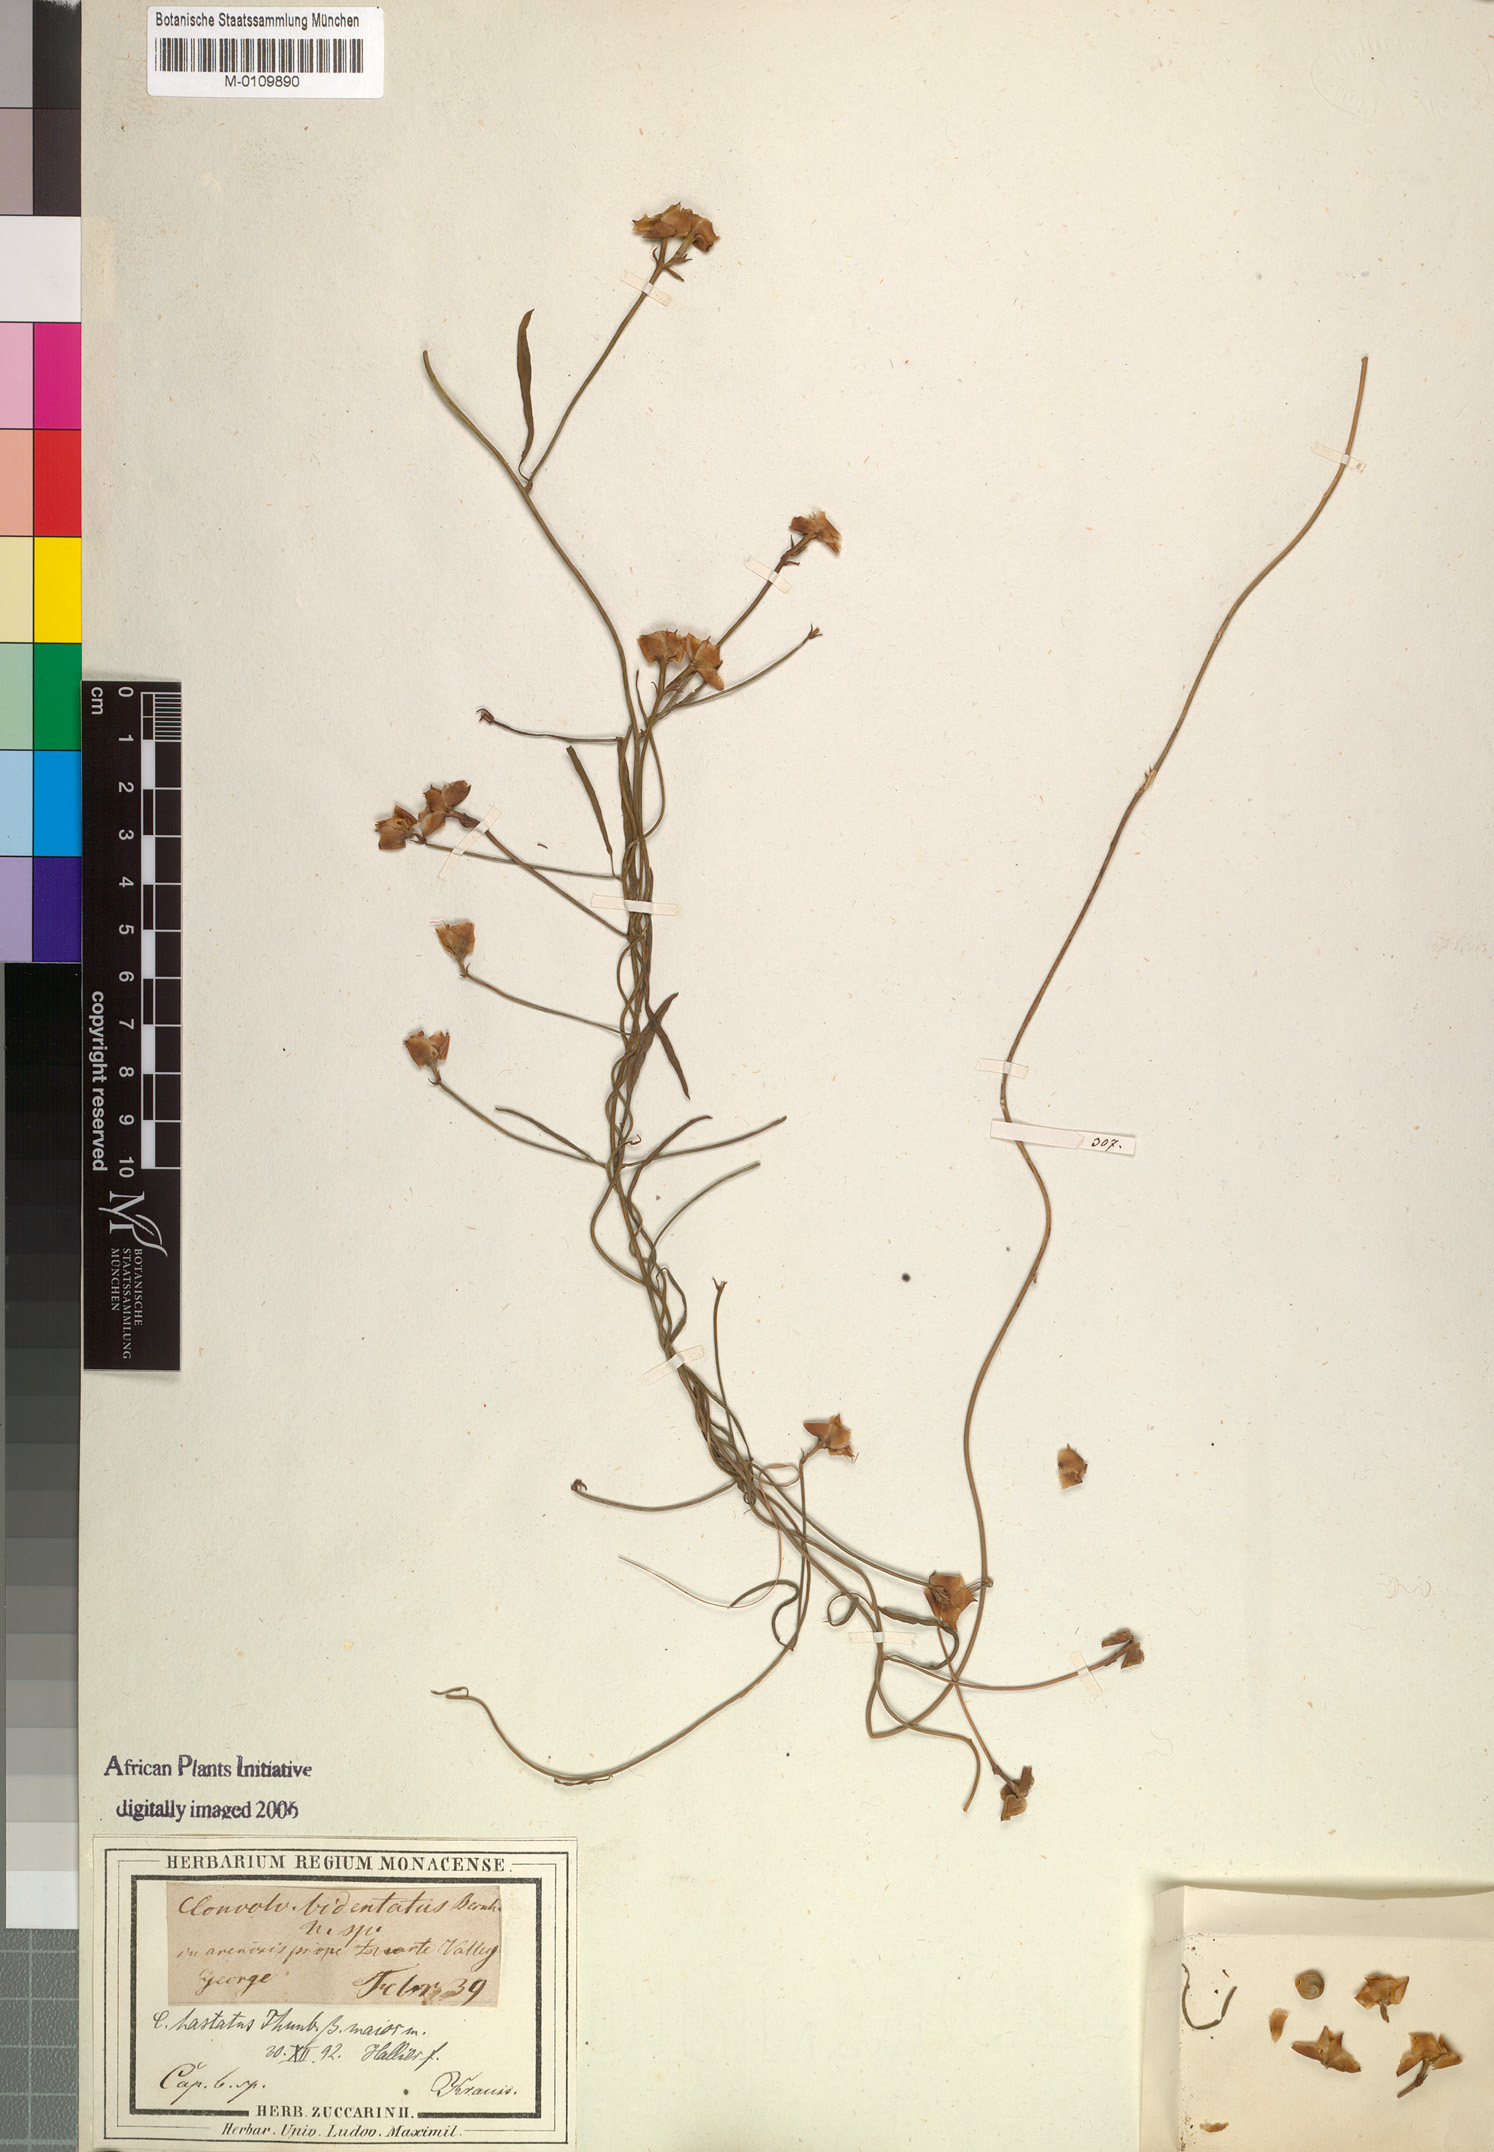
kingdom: Plantae
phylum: Tracheophyta
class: Magnoliopsida
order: Solanales
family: Convolvulaceae
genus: Convolvulus
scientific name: Convolvulus bidentatus
